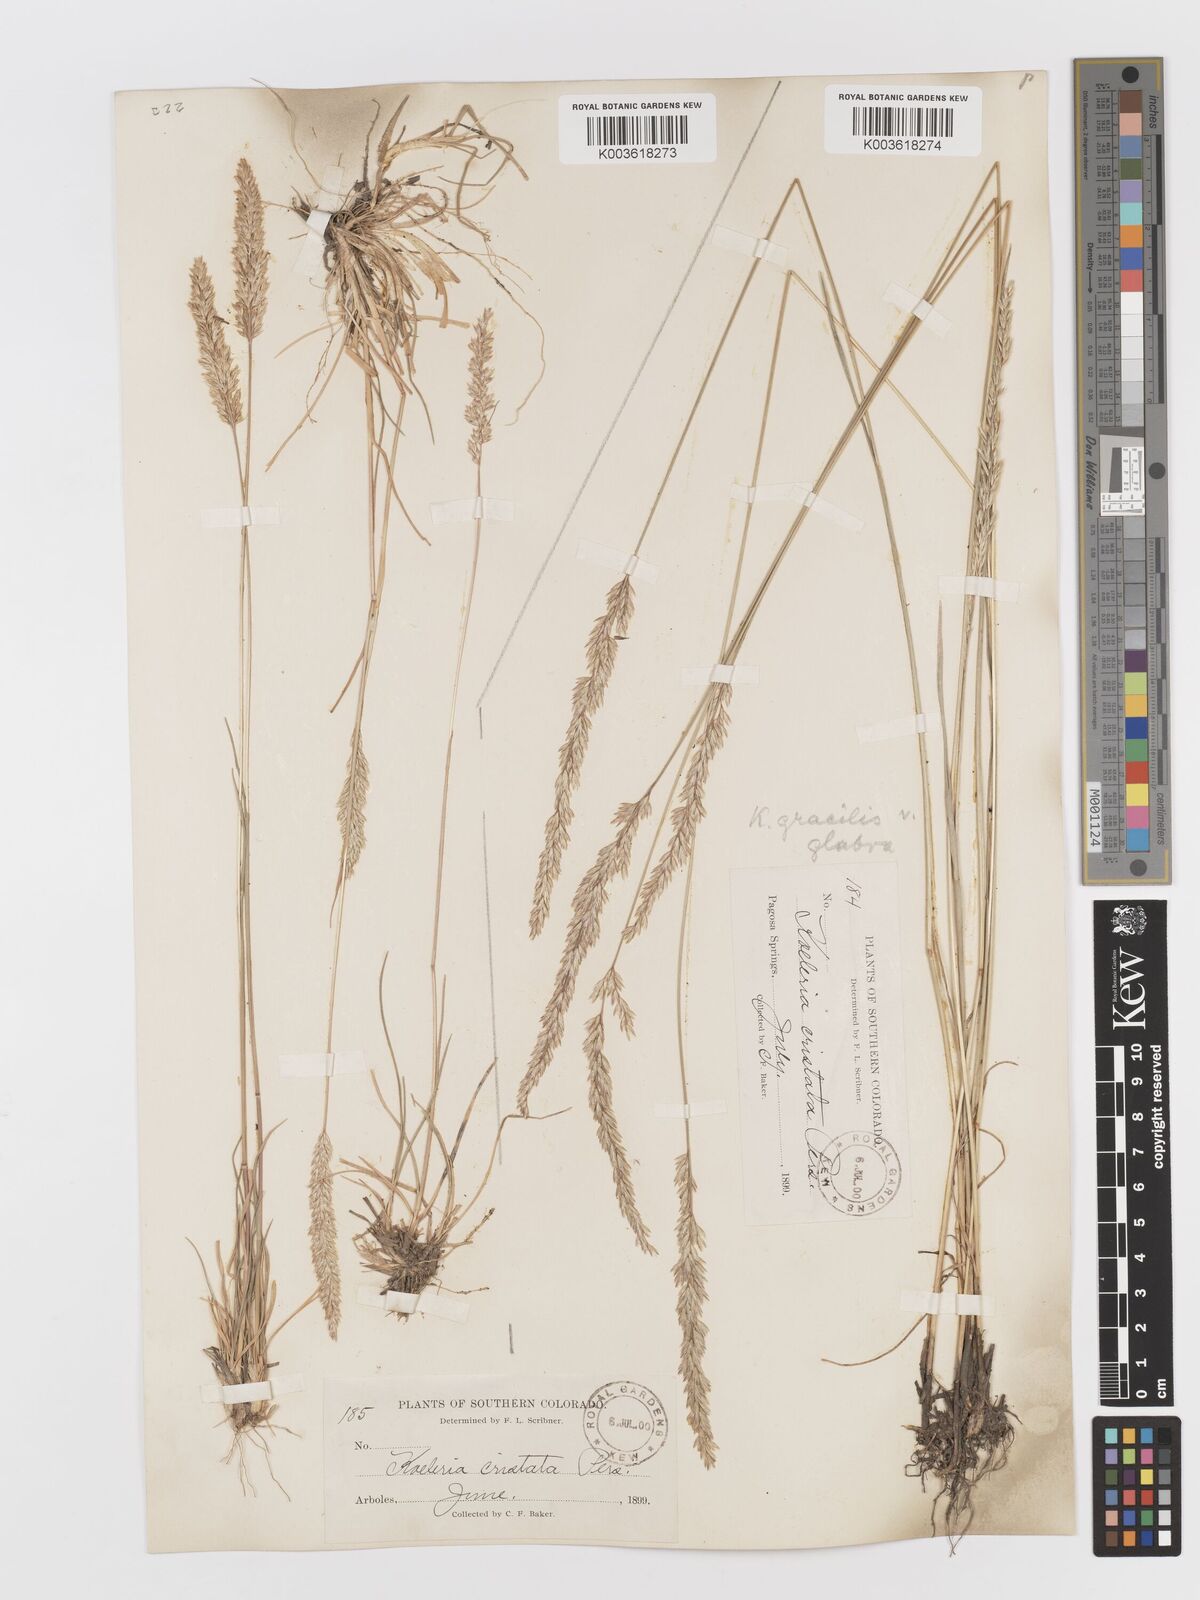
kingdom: Plantae
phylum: Tracheophyta
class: Liliopsida
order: Poales
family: Poaceae
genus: Koeleria
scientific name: Koeleria macrantha
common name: Crested hair-grass
